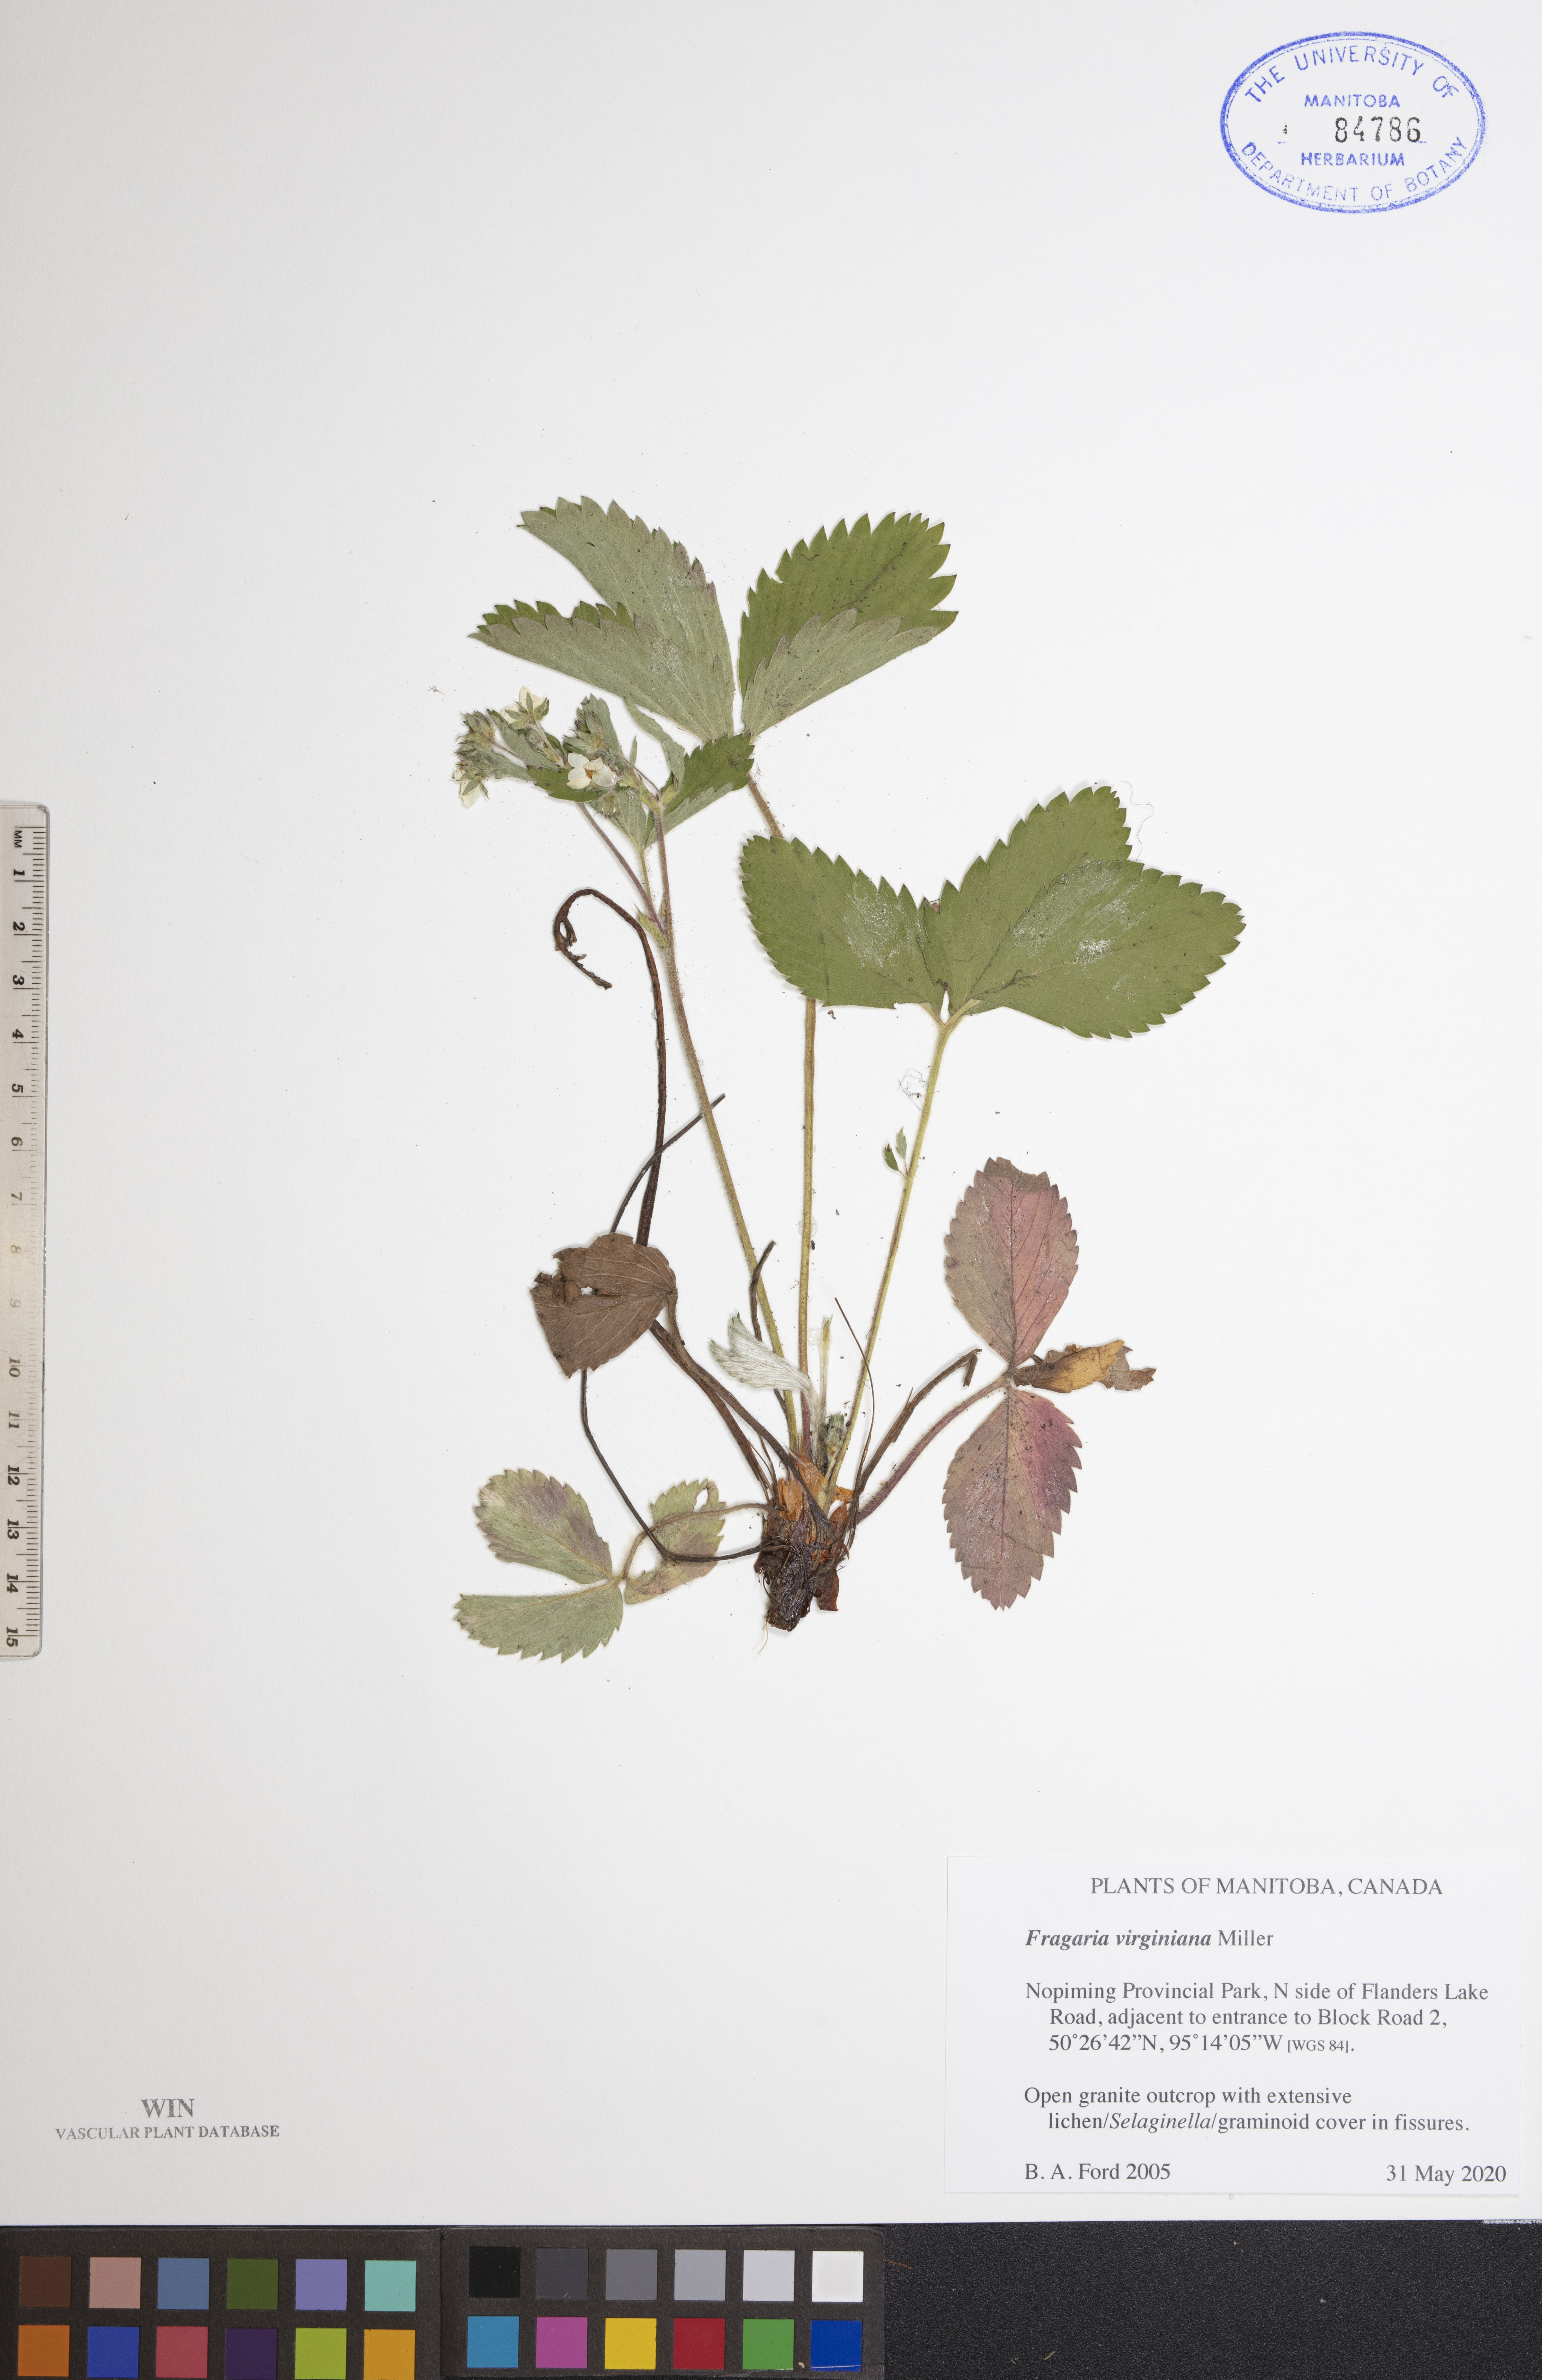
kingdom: Plantae
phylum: Tracheophyta
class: Magnoliopsida
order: Rosales
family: Rosaceae
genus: Fragaria
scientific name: Fragaria virginiana
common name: Thickleaved wild strawberry
